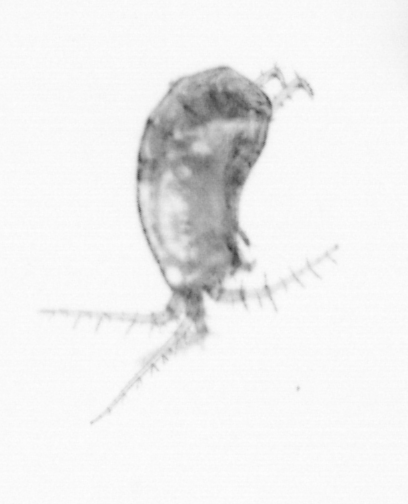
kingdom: Animalia
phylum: Arthropoda
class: Copepoda
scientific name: Copepoda
